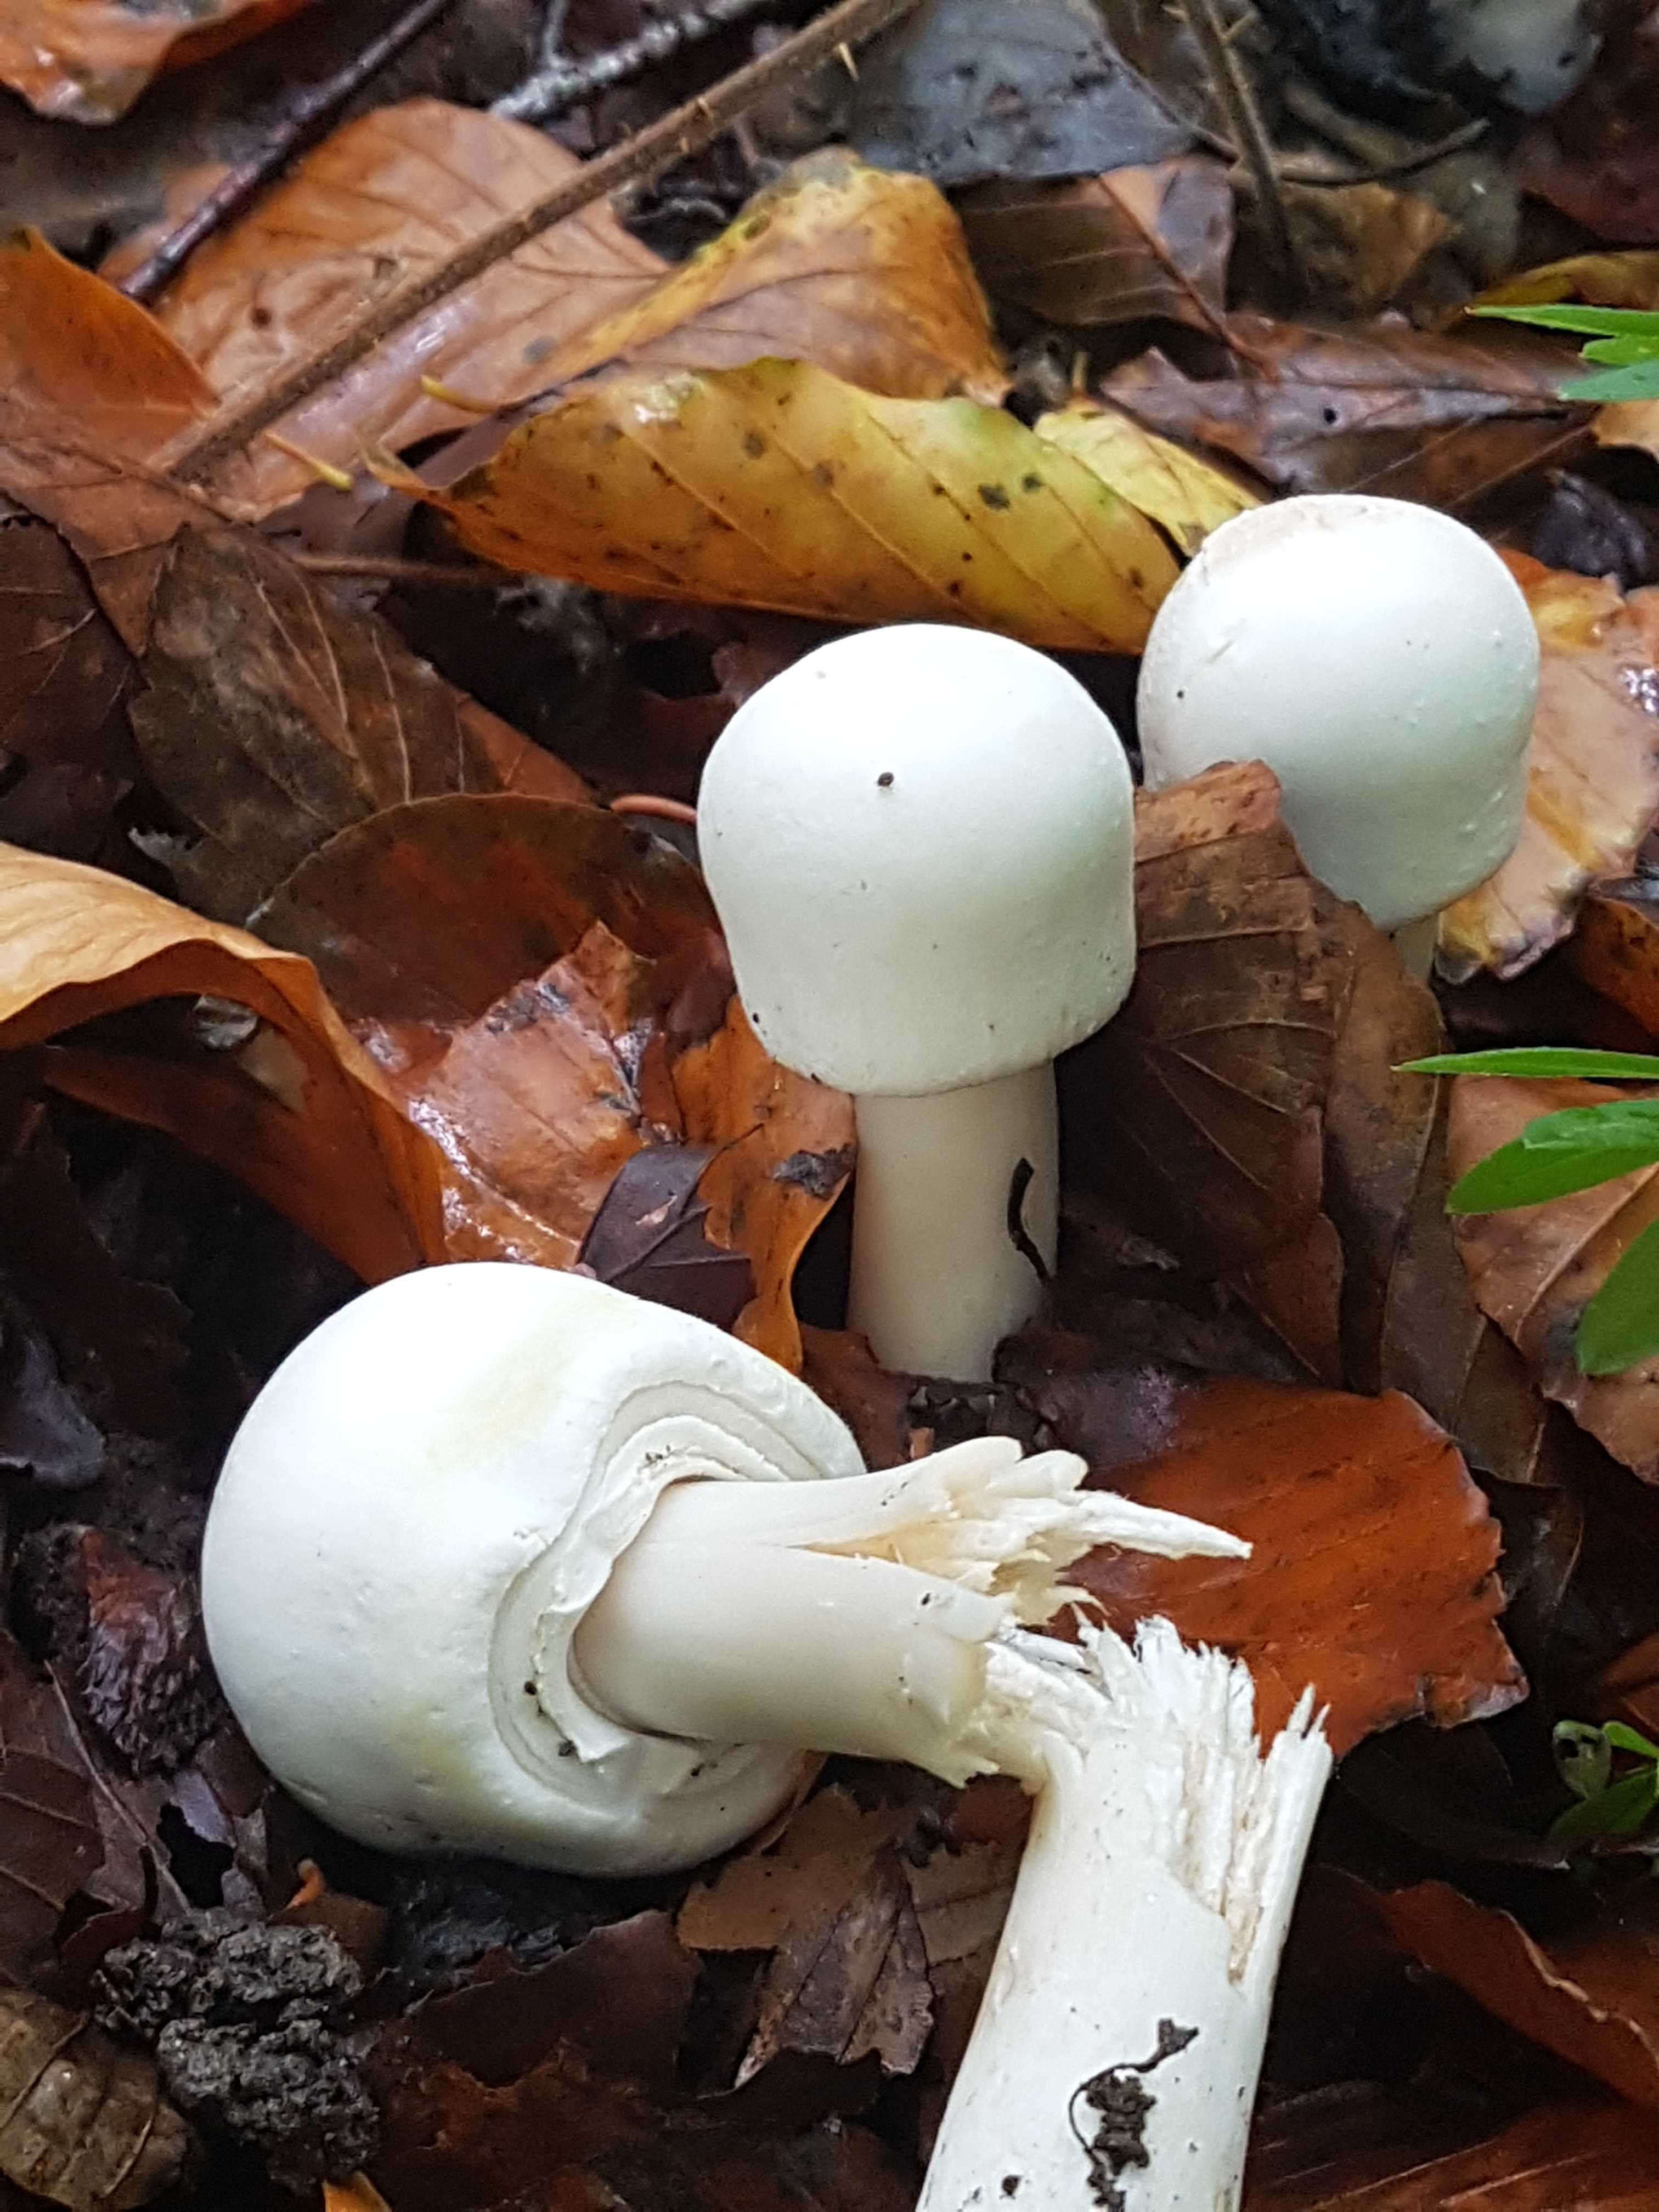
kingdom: Fungi
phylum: Basidiomycota
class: Agaricomycetes
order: Agaricales
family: Agaricaceae
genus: Agaricus
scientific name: Agaricus xanthodermus
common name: karbol-champignon
